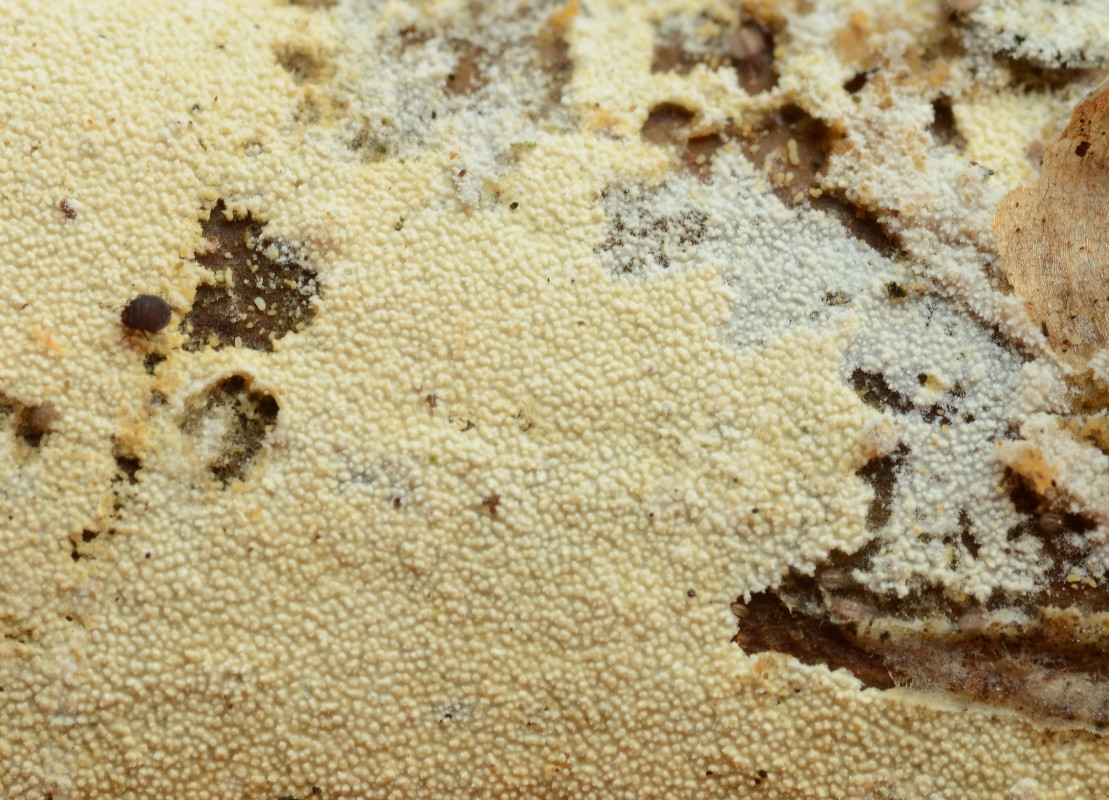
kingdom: Fungi
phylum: Basidiomycota
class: Agaricomycetes
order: Hymenochaetales
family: Schizoporaceae
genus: Xylodon
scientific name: Xylodon nesporii
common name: fintandet tandsvamp
